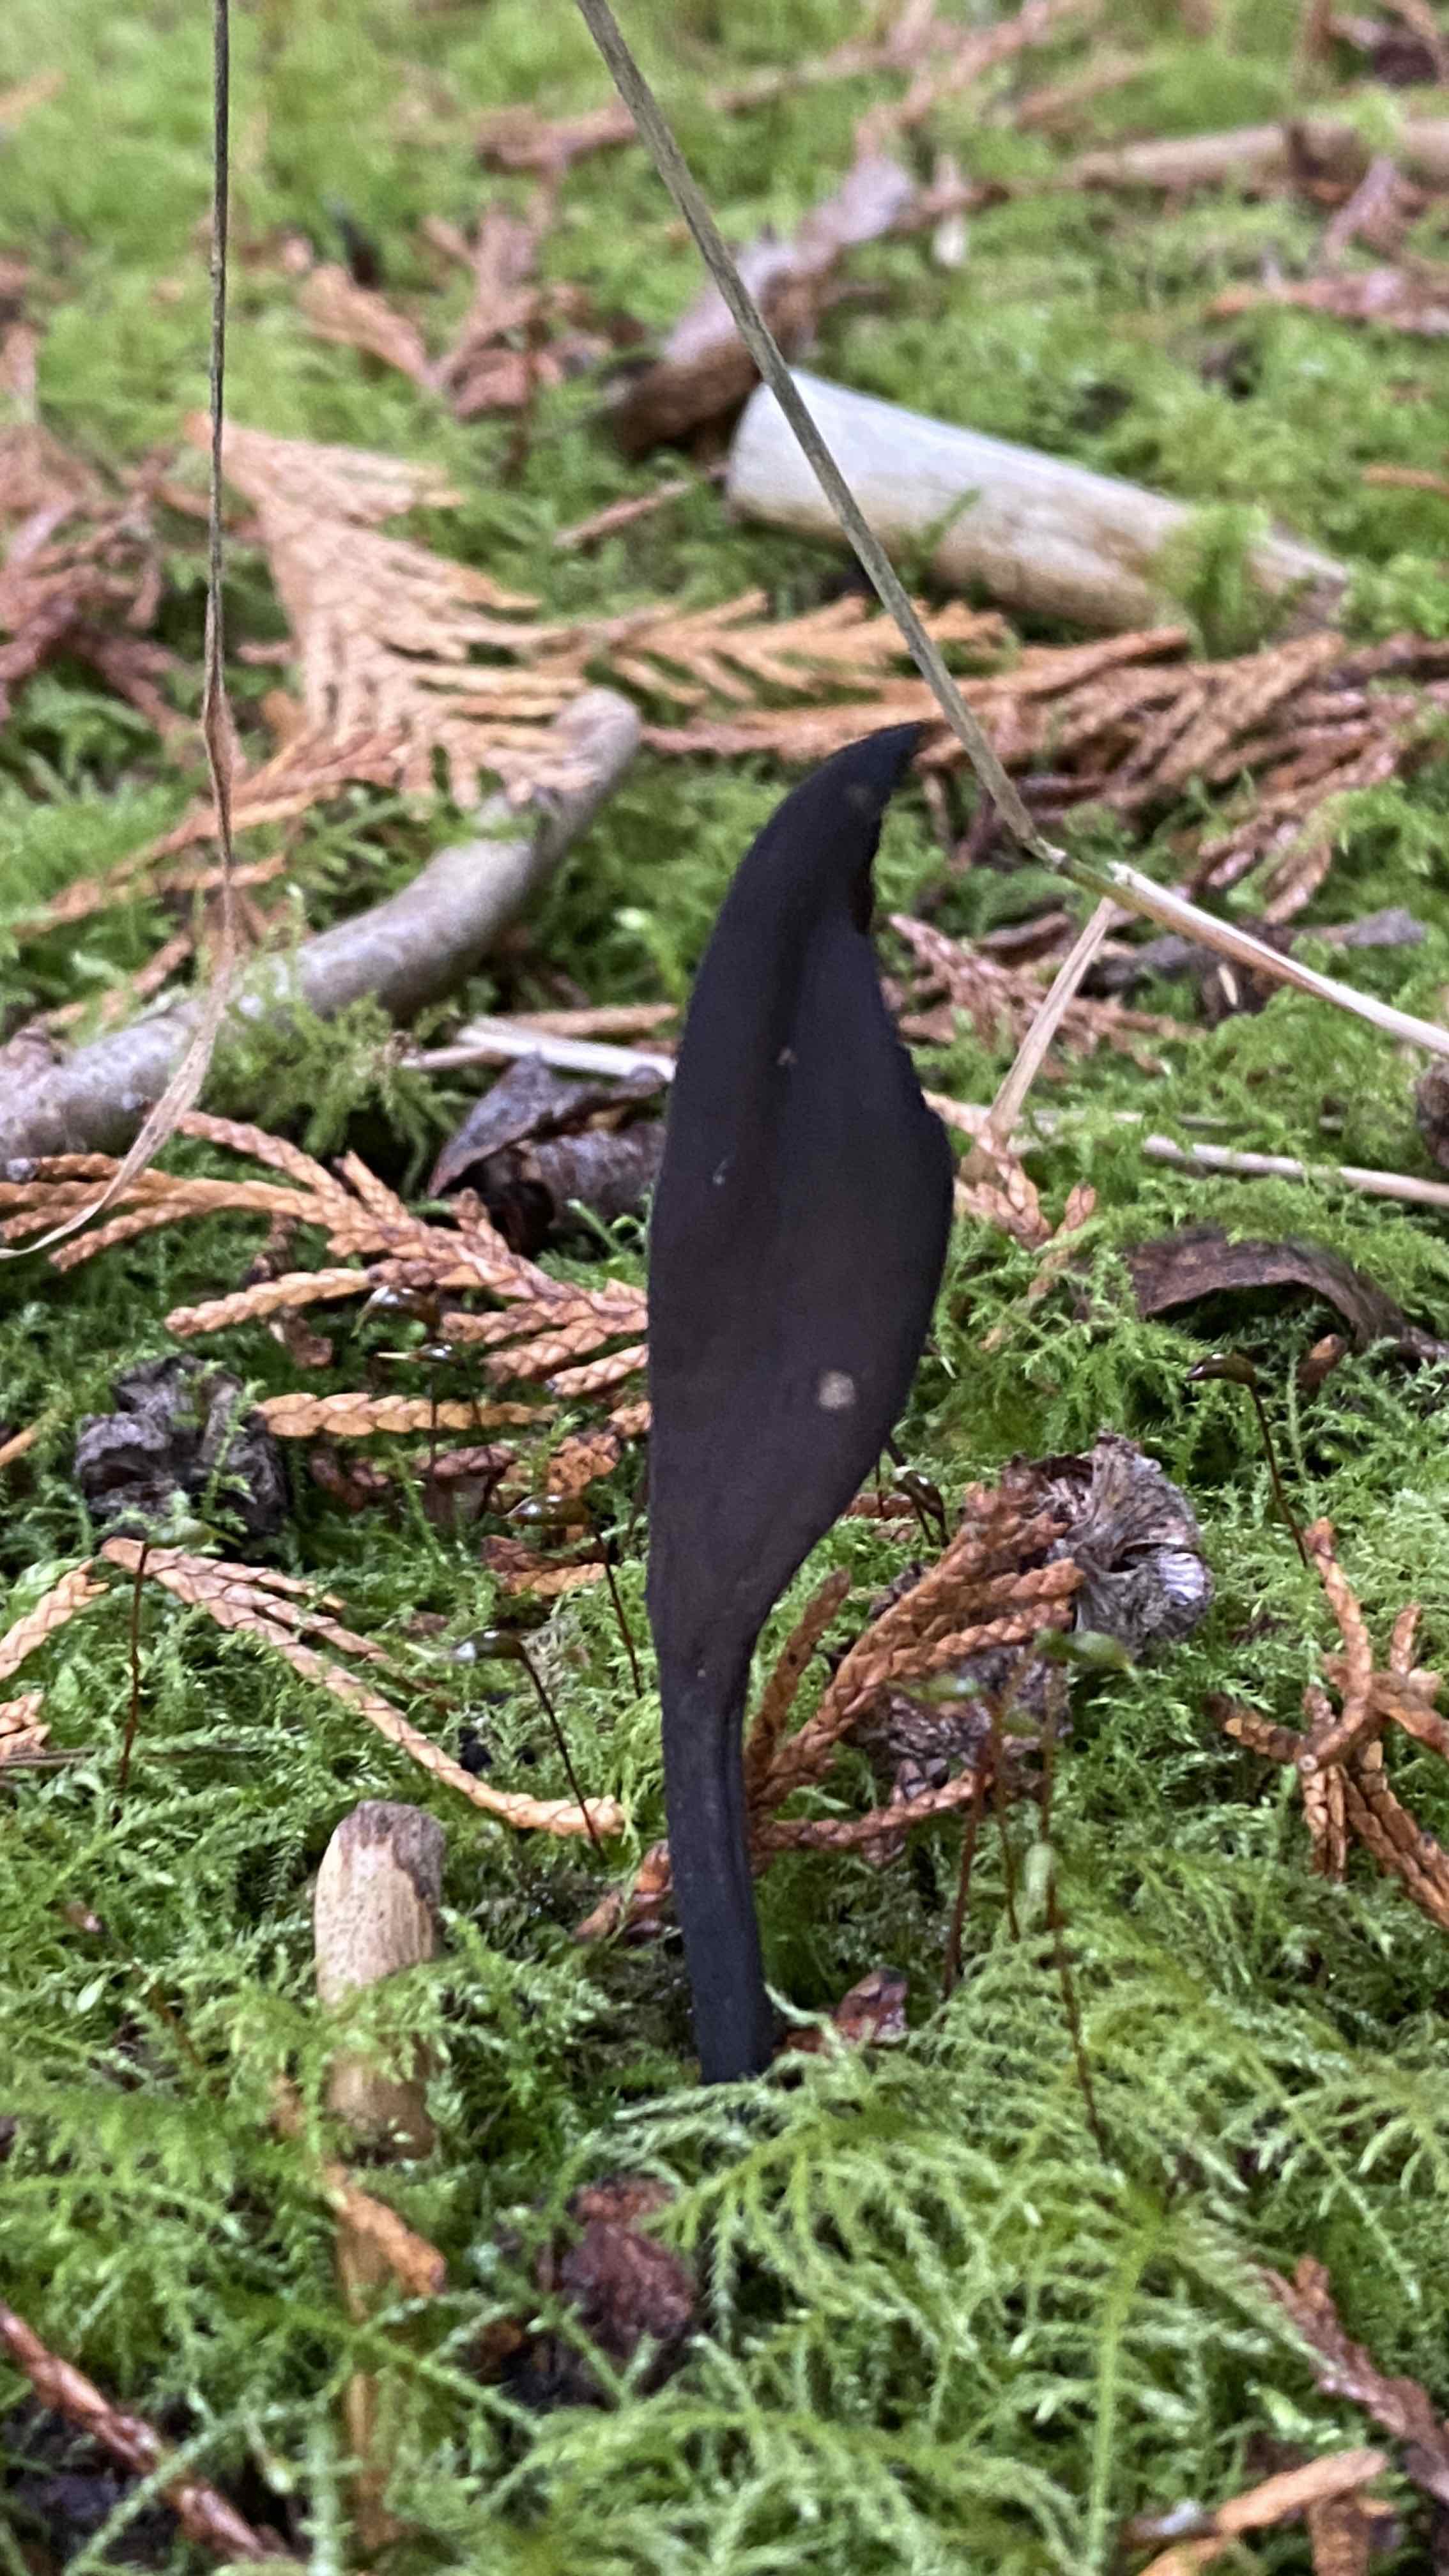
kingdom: Fungi
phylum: Ascomycota
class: Geoglossomycetes
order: Geoglossales
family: Geoglossaceae
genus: Geoglossum
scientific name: Geoglossum
